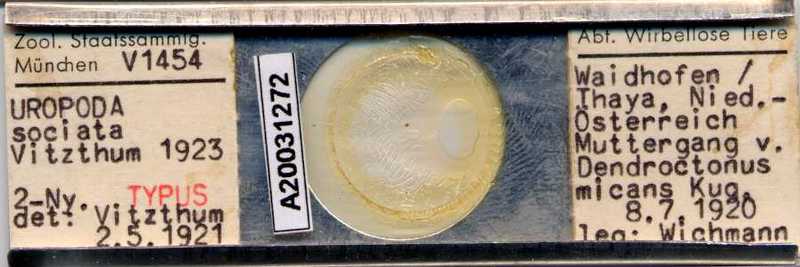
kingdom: Animalia
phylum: Arthropoda
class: Arachnida
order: Mesostigmata
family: Trematuridae
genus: Trichouropoda
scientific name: Trichouropoda sociata
